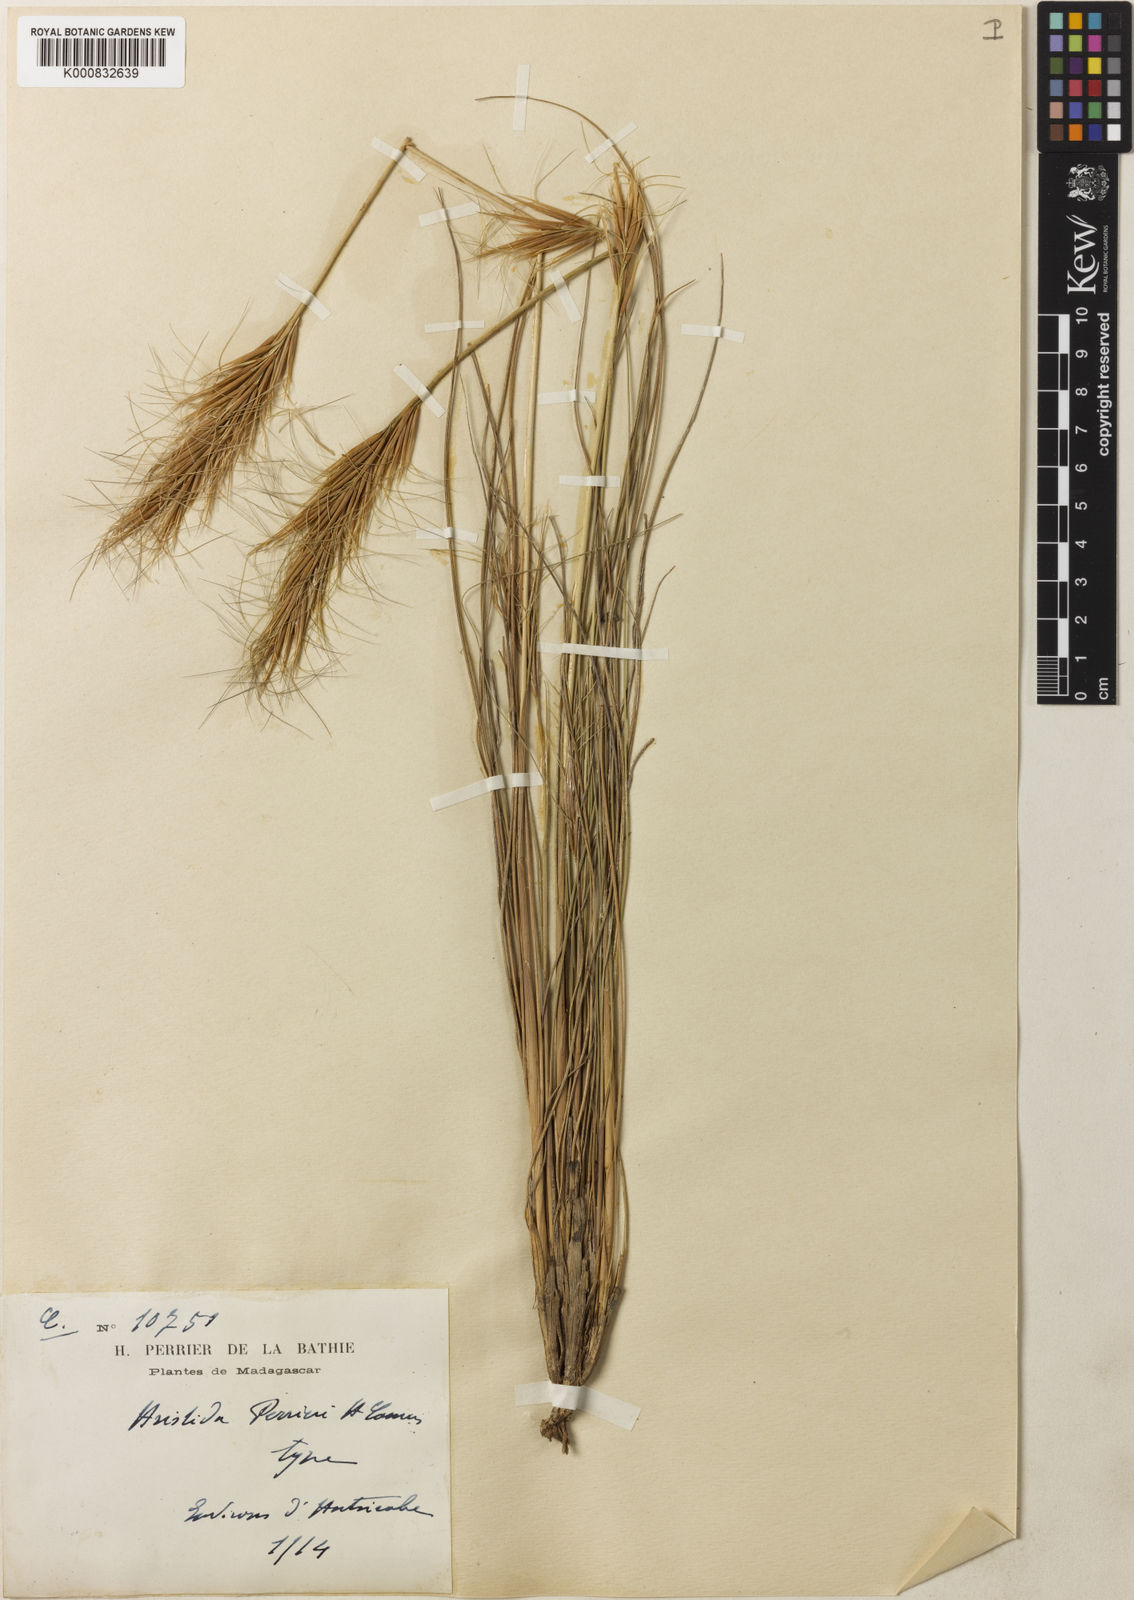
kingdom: Plantae
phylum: Tracheophyta
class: Liliopsida
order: Poales
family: Poaceae
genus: Sartidia
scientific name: Sartidia perrieri
